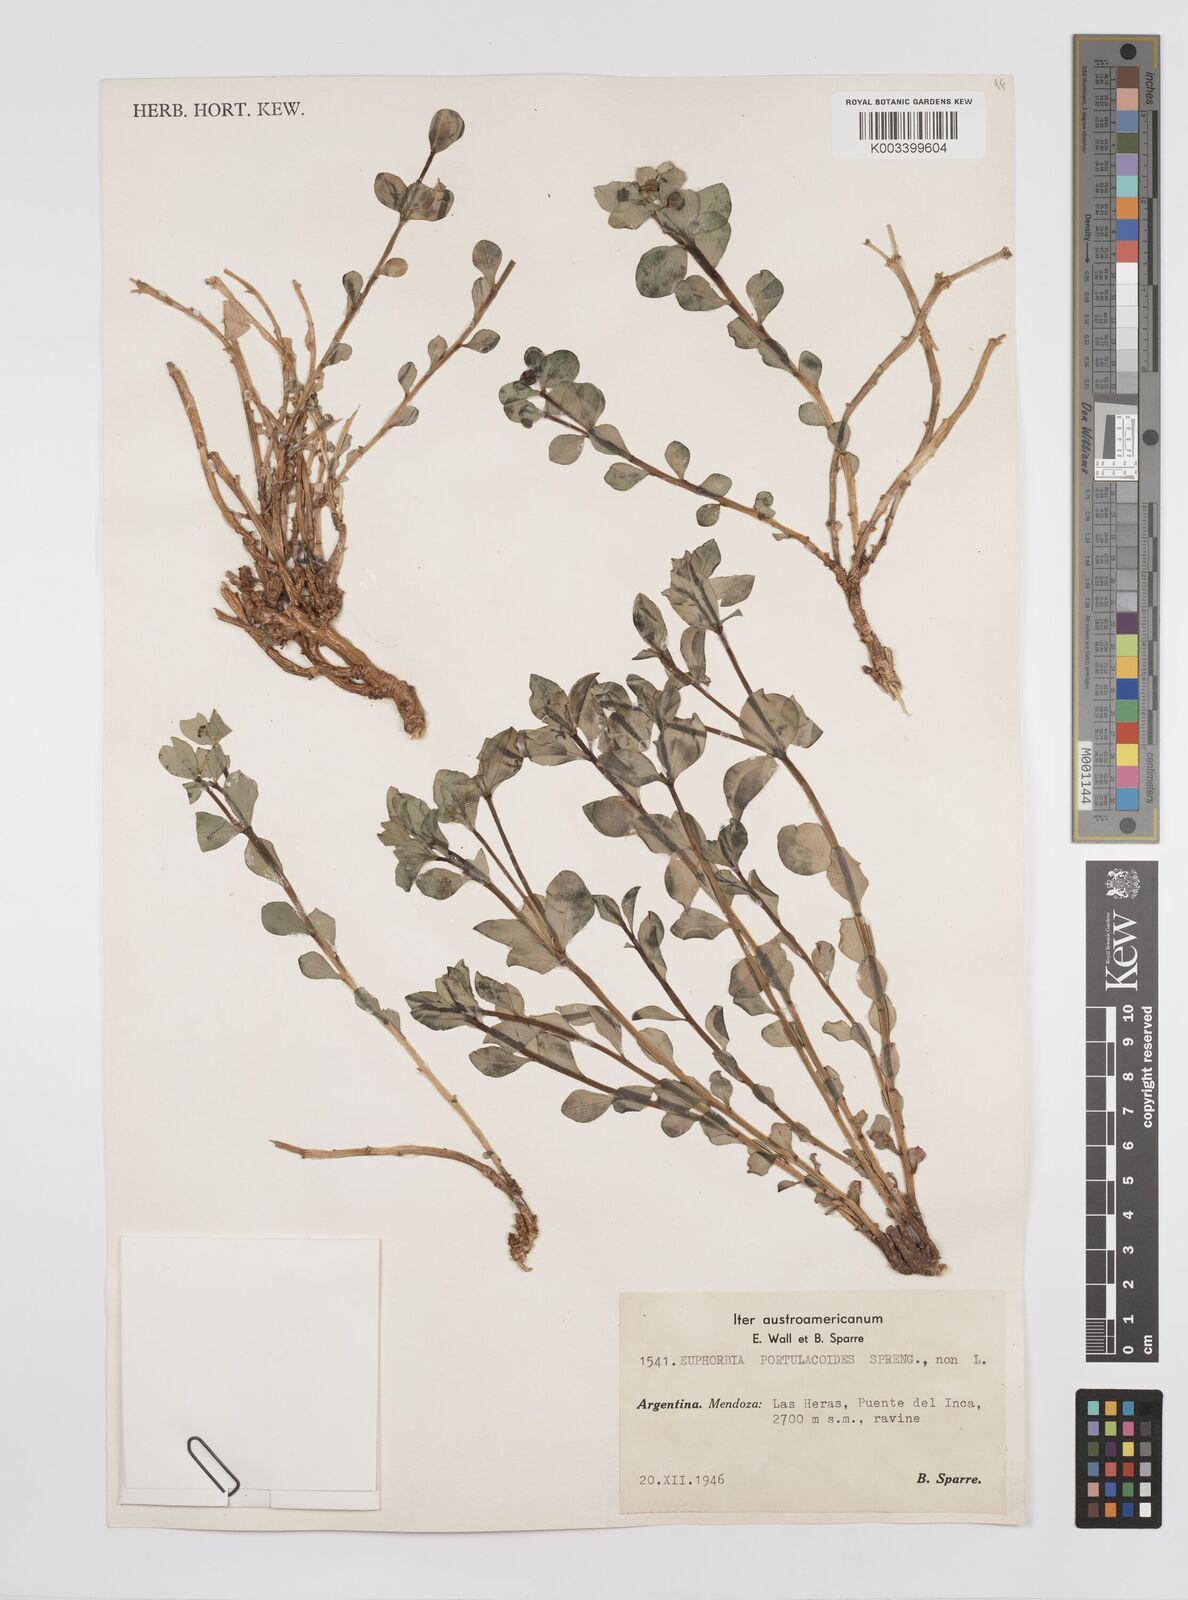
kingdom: Plantae
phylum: Tracheophyta
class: Magnoliopsida
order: Malpighiales
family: Euphorbiaceae
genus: Euphorbia
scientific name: Euphorbia portulacoides
